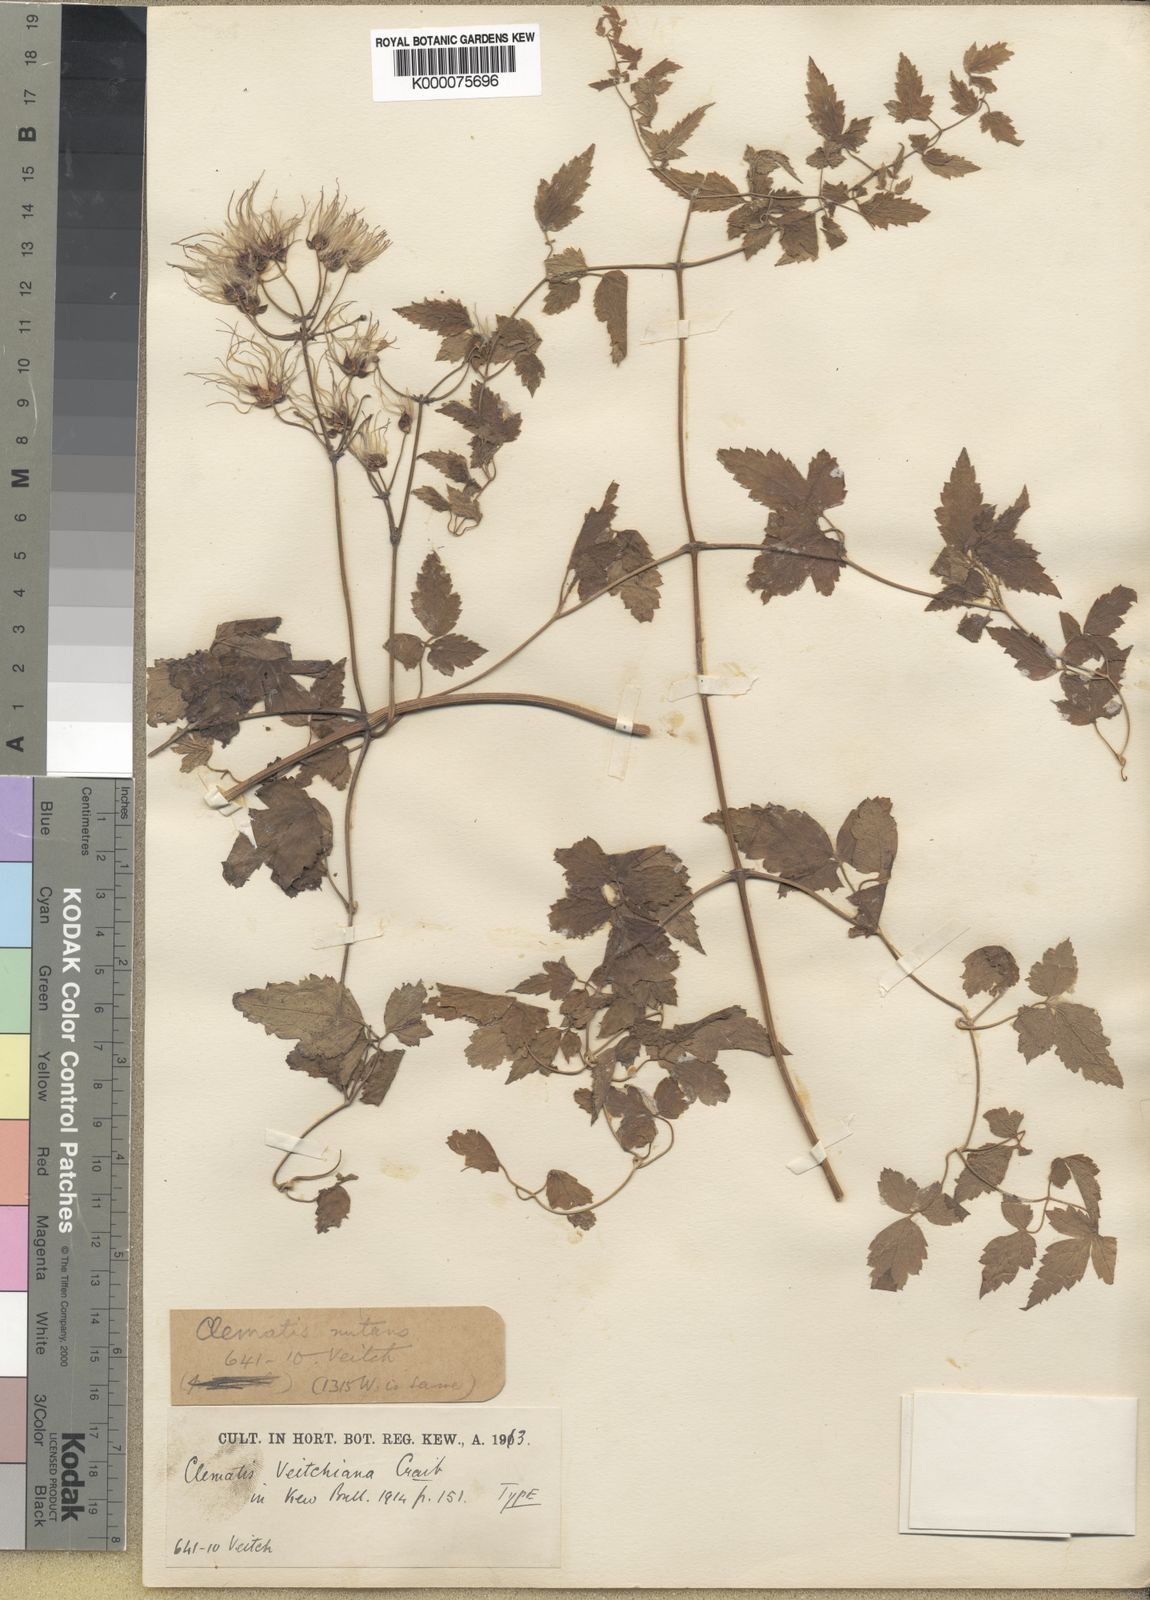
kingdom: Plantae
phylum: Tracheophyta
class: Magnoliopsida
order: Ranunculales
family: Ranunculaceae
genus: Clematis
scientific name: Clematis rehderiana
